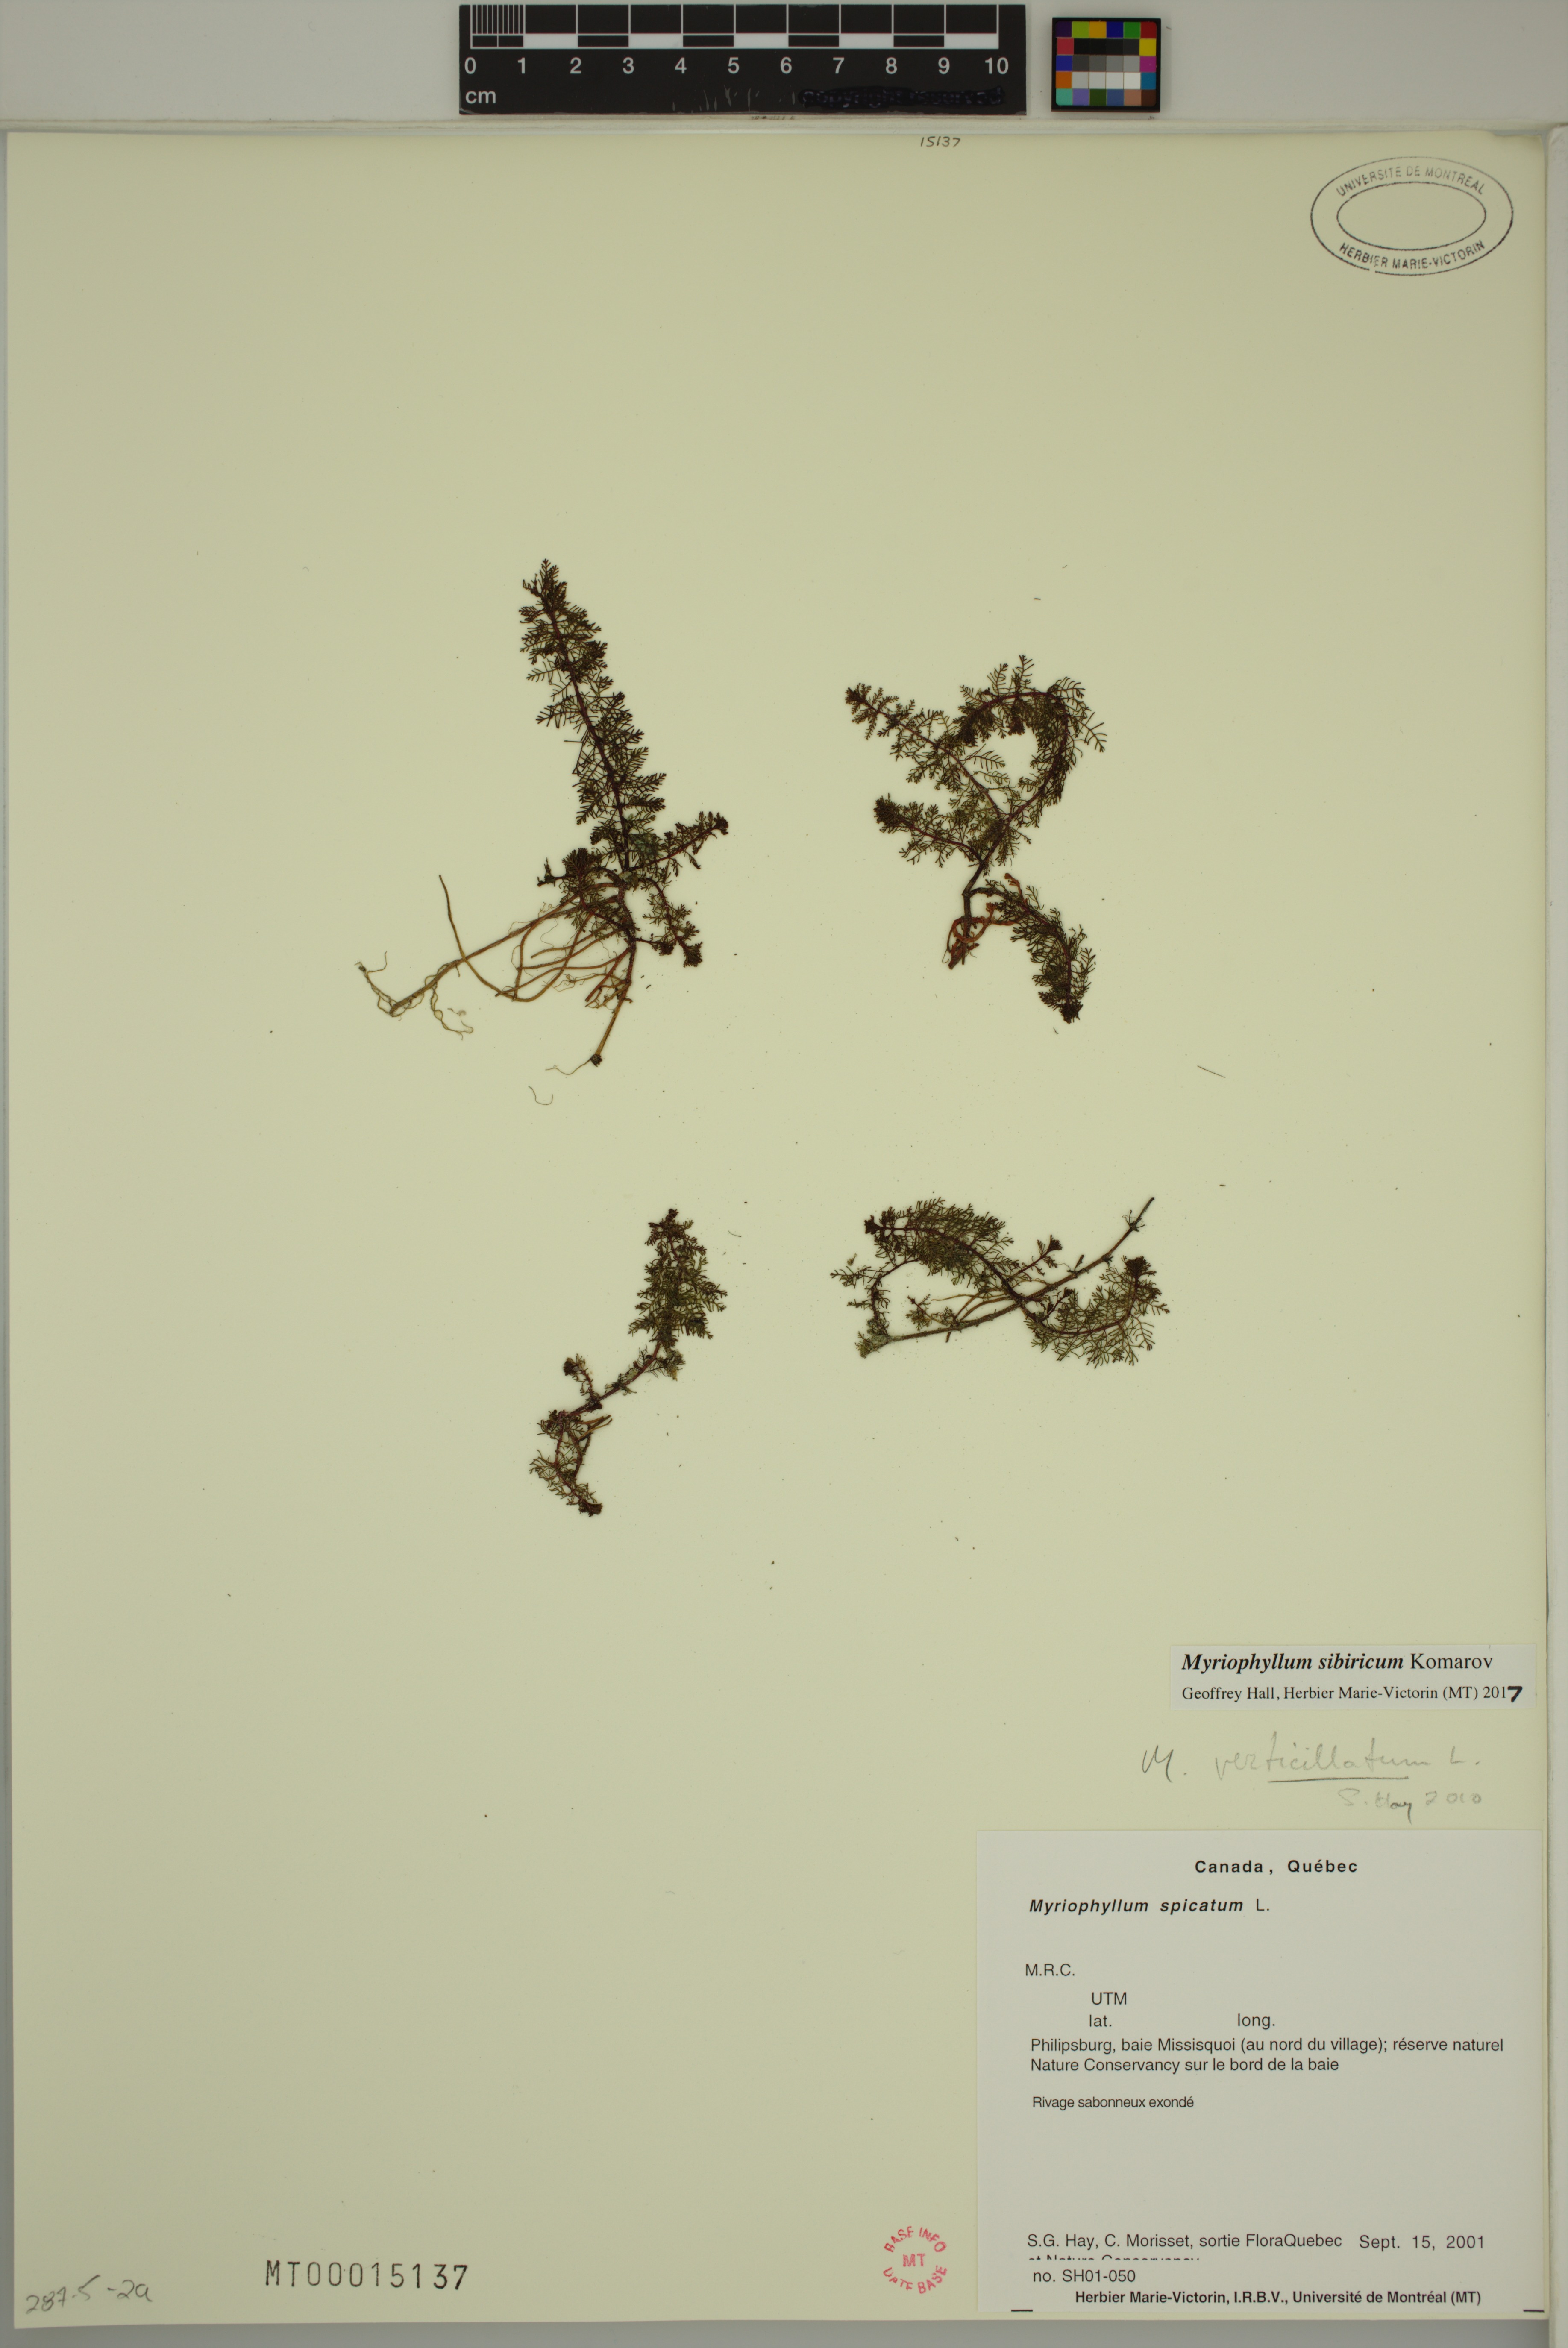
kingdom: Plantae
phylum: Tracheophyta
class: Magnoliopsida
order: Saxifragales
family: Haloragaceae
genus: Myriophyllum
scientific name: Myriophyllum sibiricum
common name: Siberian water-milfoil
